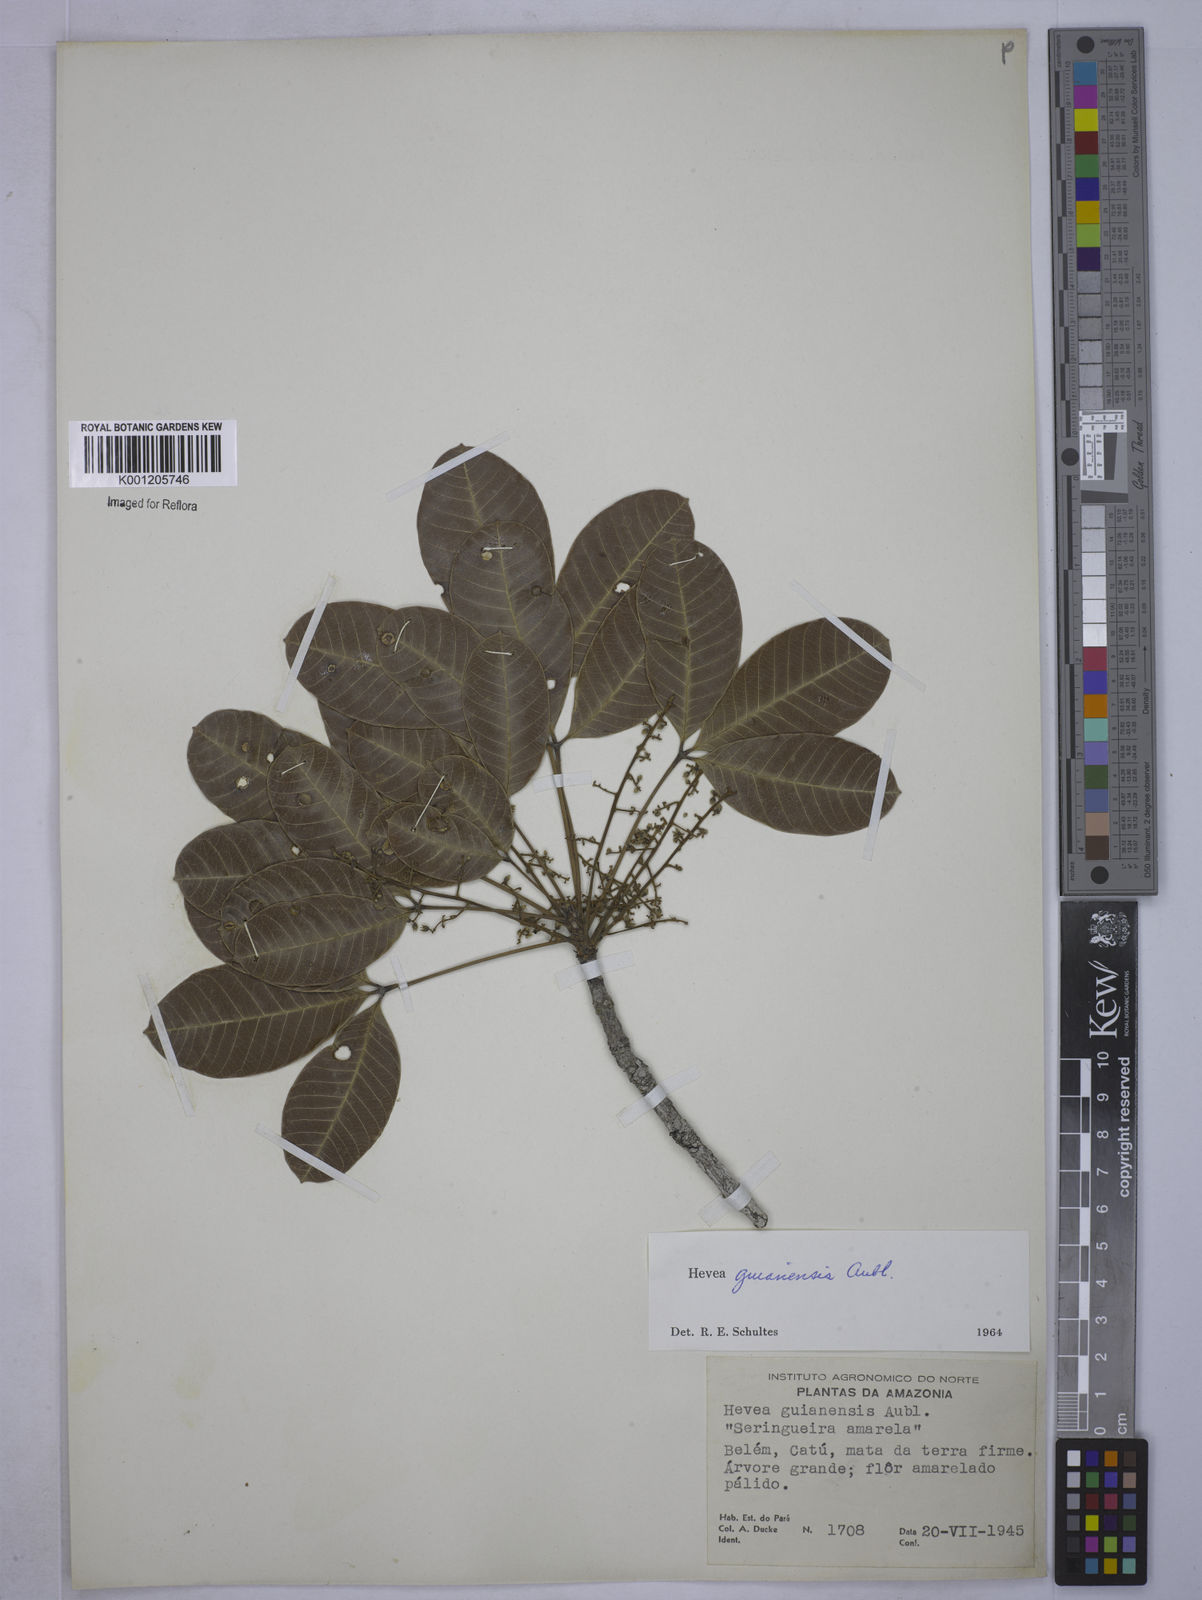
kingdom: Plantae
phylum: Tracheophyta
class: Magnoliopsida
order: Malpighiales
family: Euphorbiaceae
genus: Hevea
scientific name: Hevea guianensis
